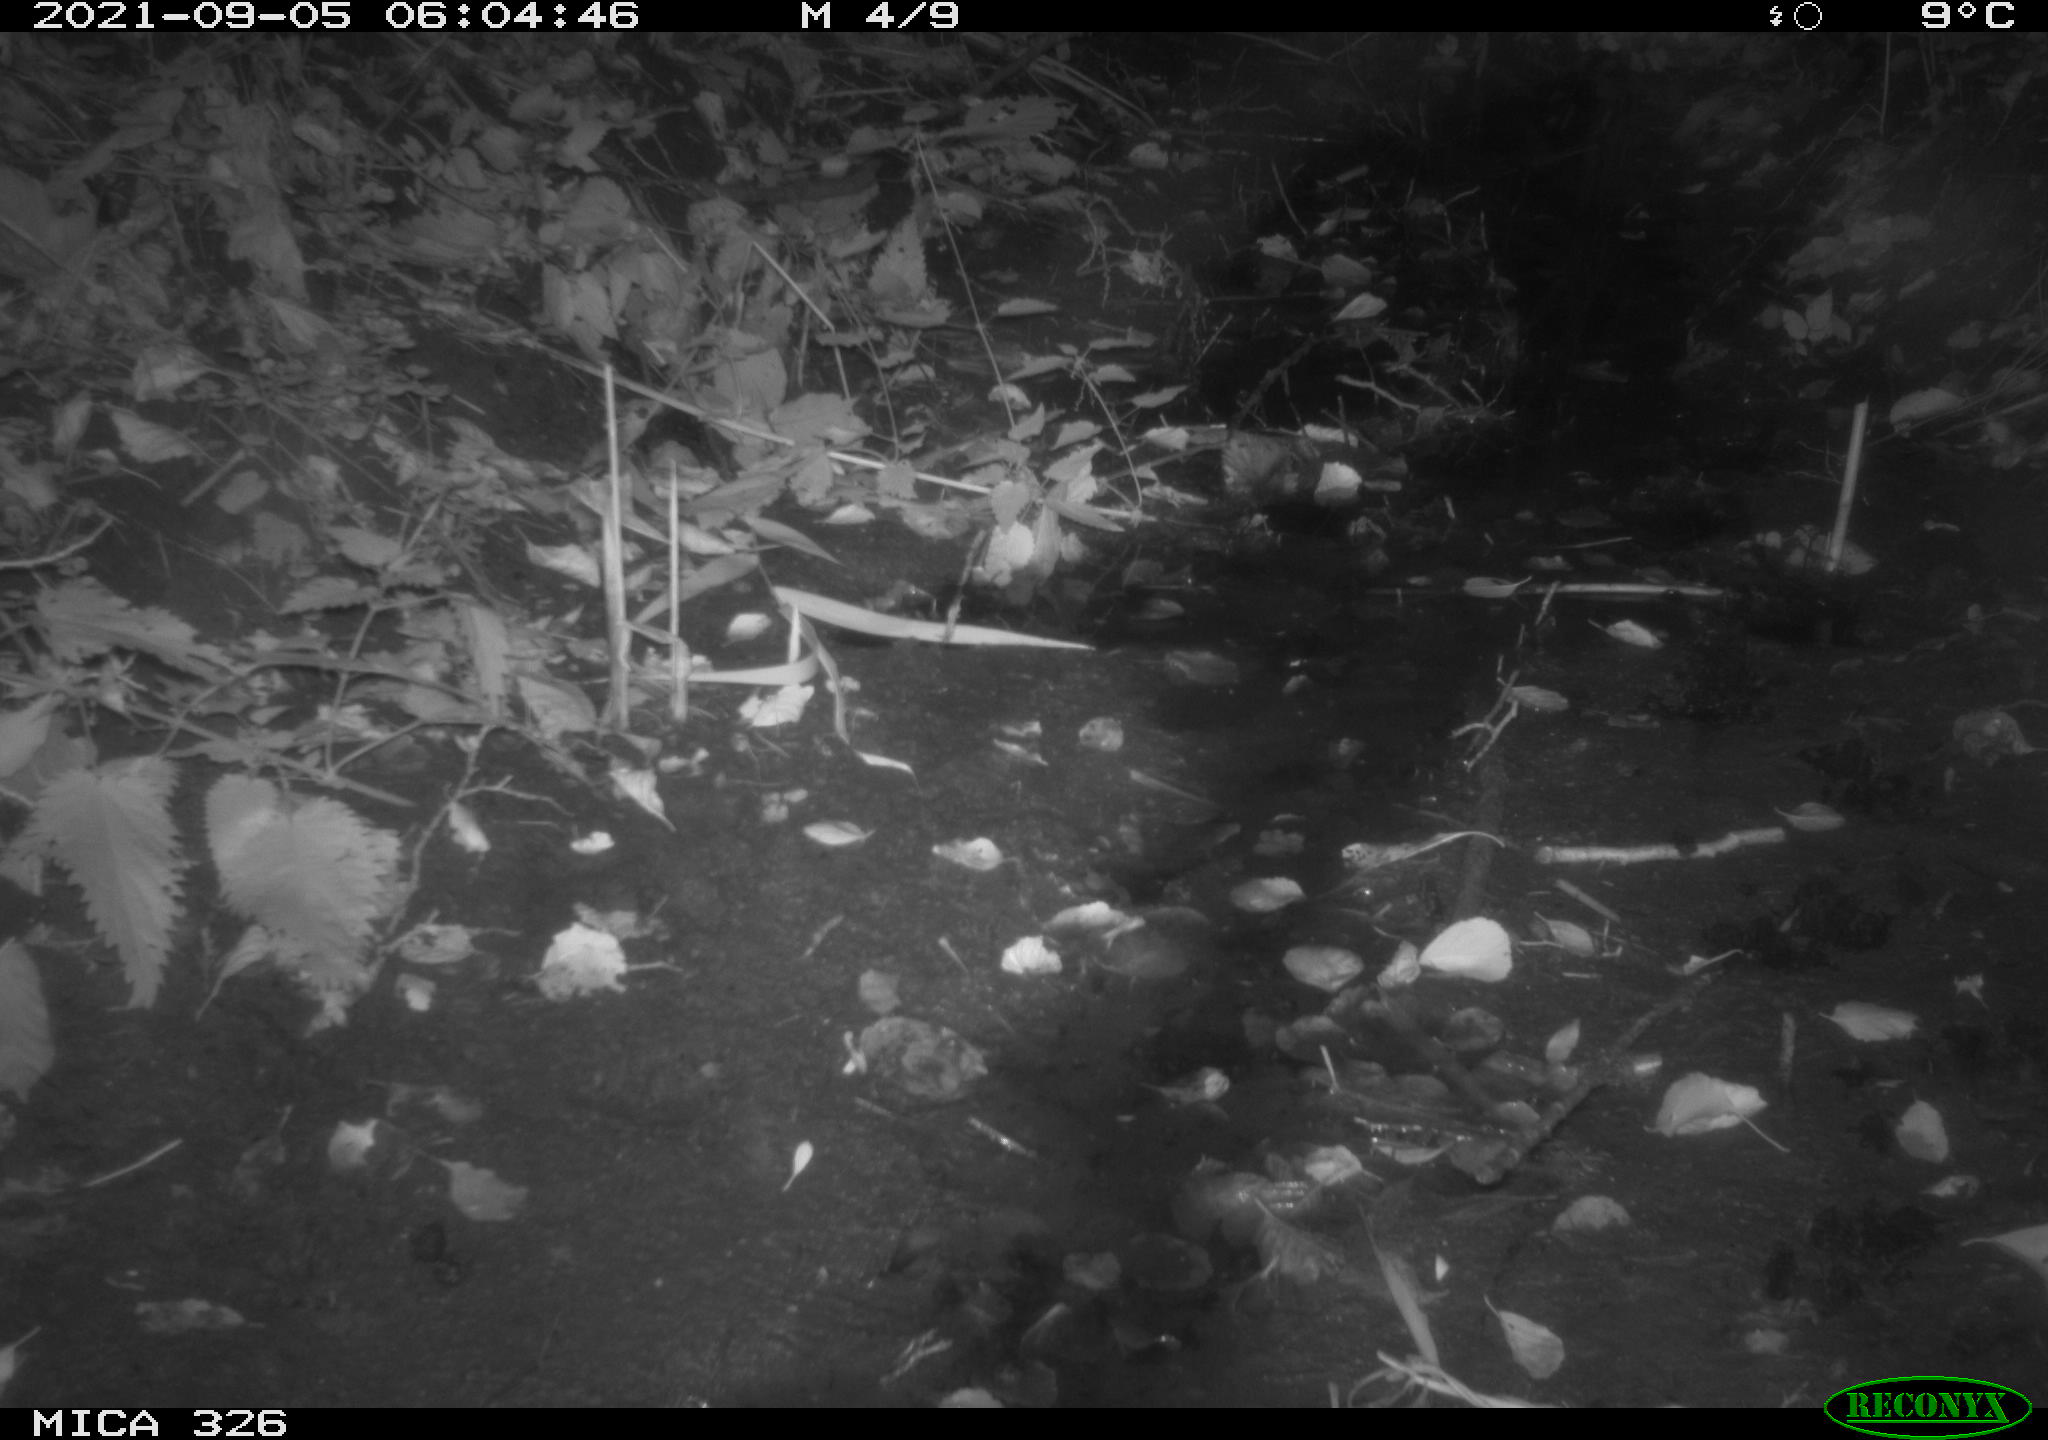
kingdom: Animalia
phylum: Chordata
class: Mammalia
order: Rodentia
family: Muridae
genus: Rattus
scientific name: Rattus norvegicus
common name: Brown rat
